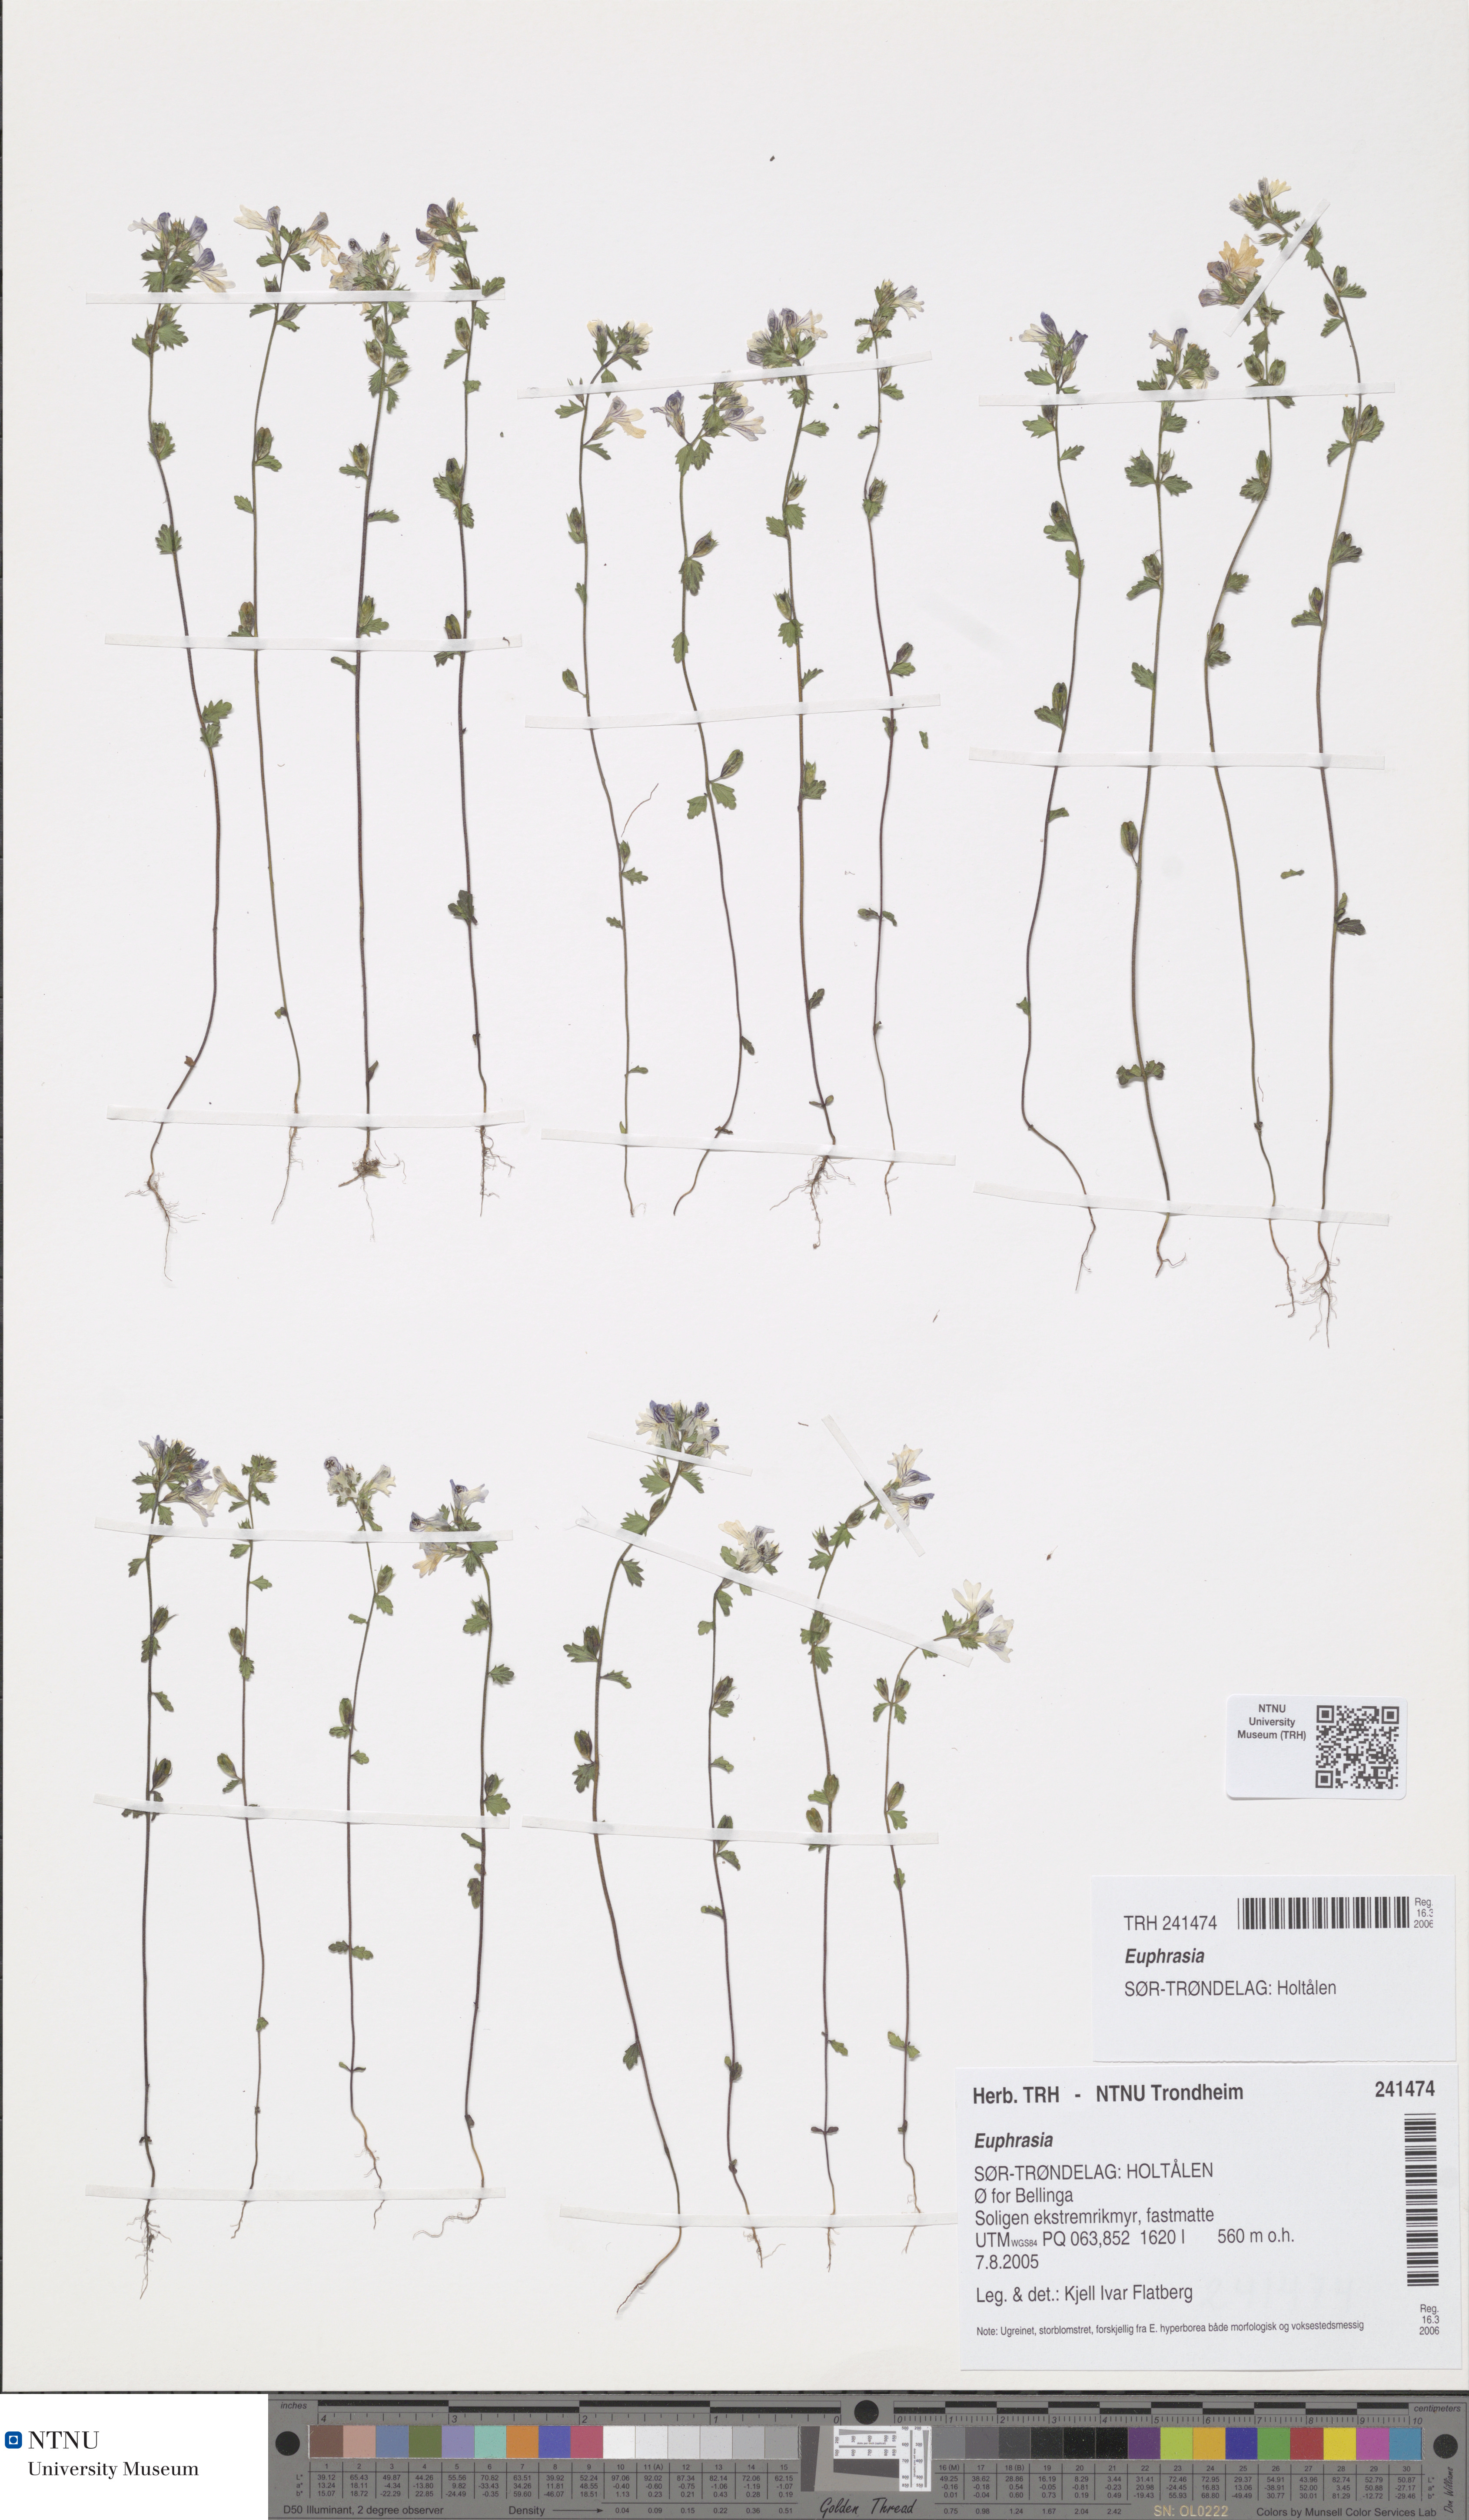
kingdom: Plantae
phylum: Tracheophyta
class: Magnoliopsida
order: Lamiales
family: Orobanchaceae
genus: Euphrasia
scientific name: Euphrasia
